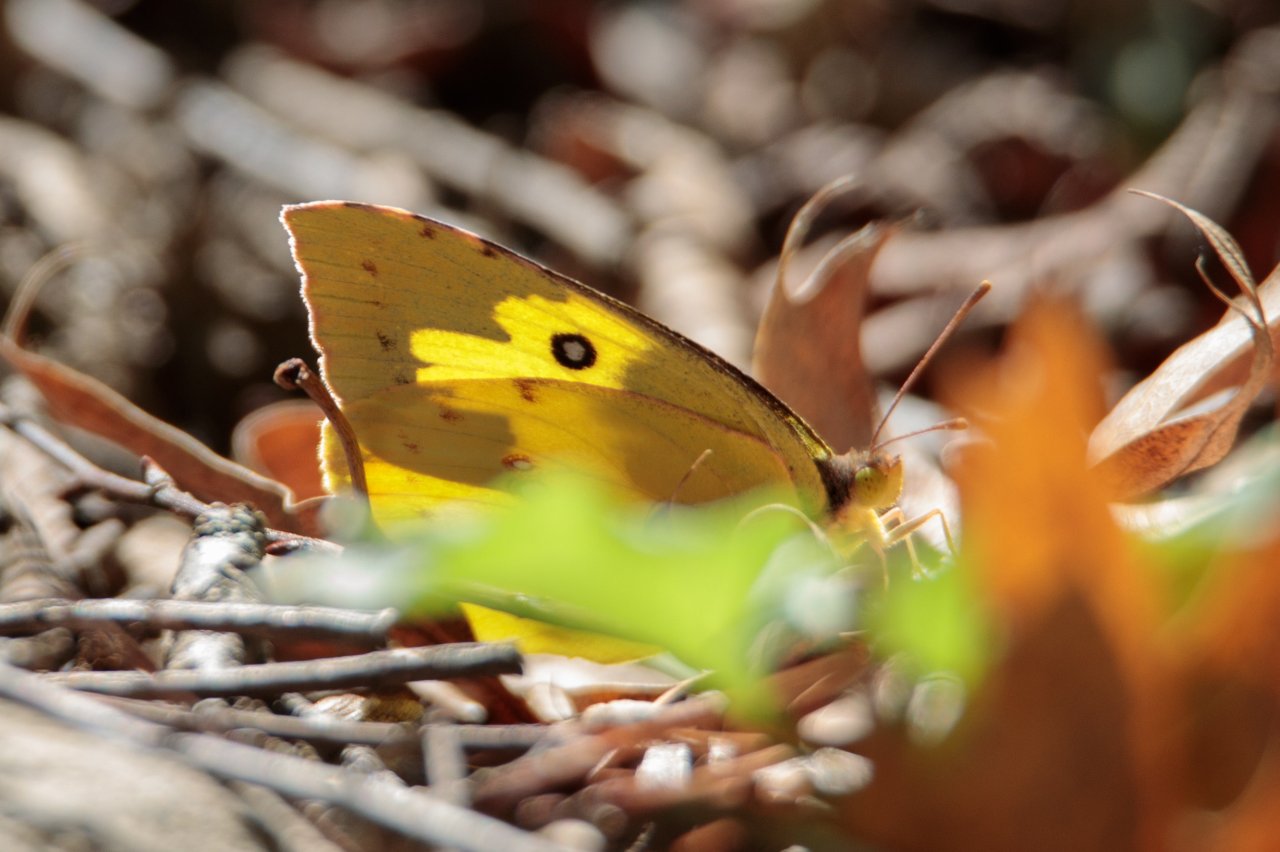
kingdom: Animalia
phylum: Arthropoda
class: Insecta
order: Lepidoptera
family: Pieridae
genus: Zerene
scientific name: Zerene cesonia
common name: Southern Dogface
